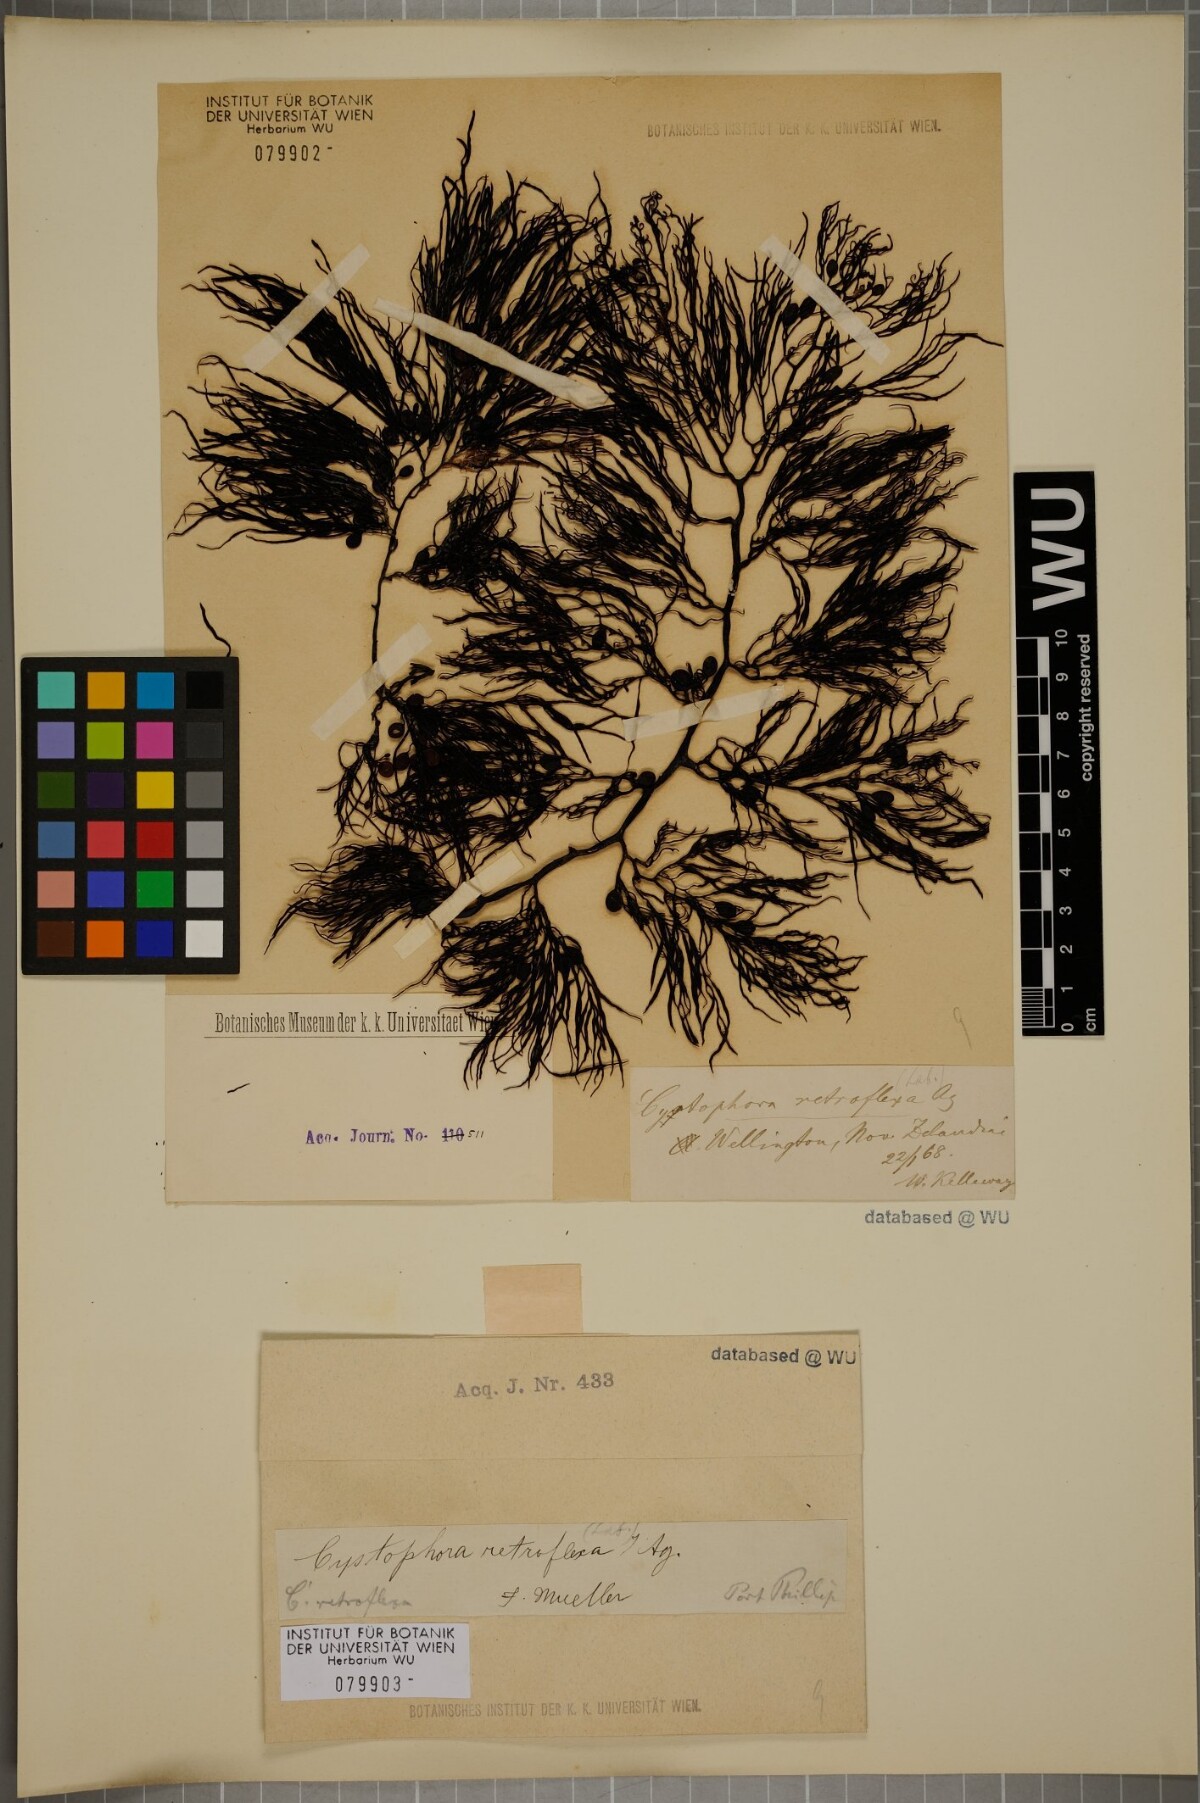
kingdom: Chromista
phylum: Ochrophyta
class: Phaeophyceae
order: Fucales
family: Sargassaceae
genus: Cystophora
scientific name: Cystophora retroflexa
